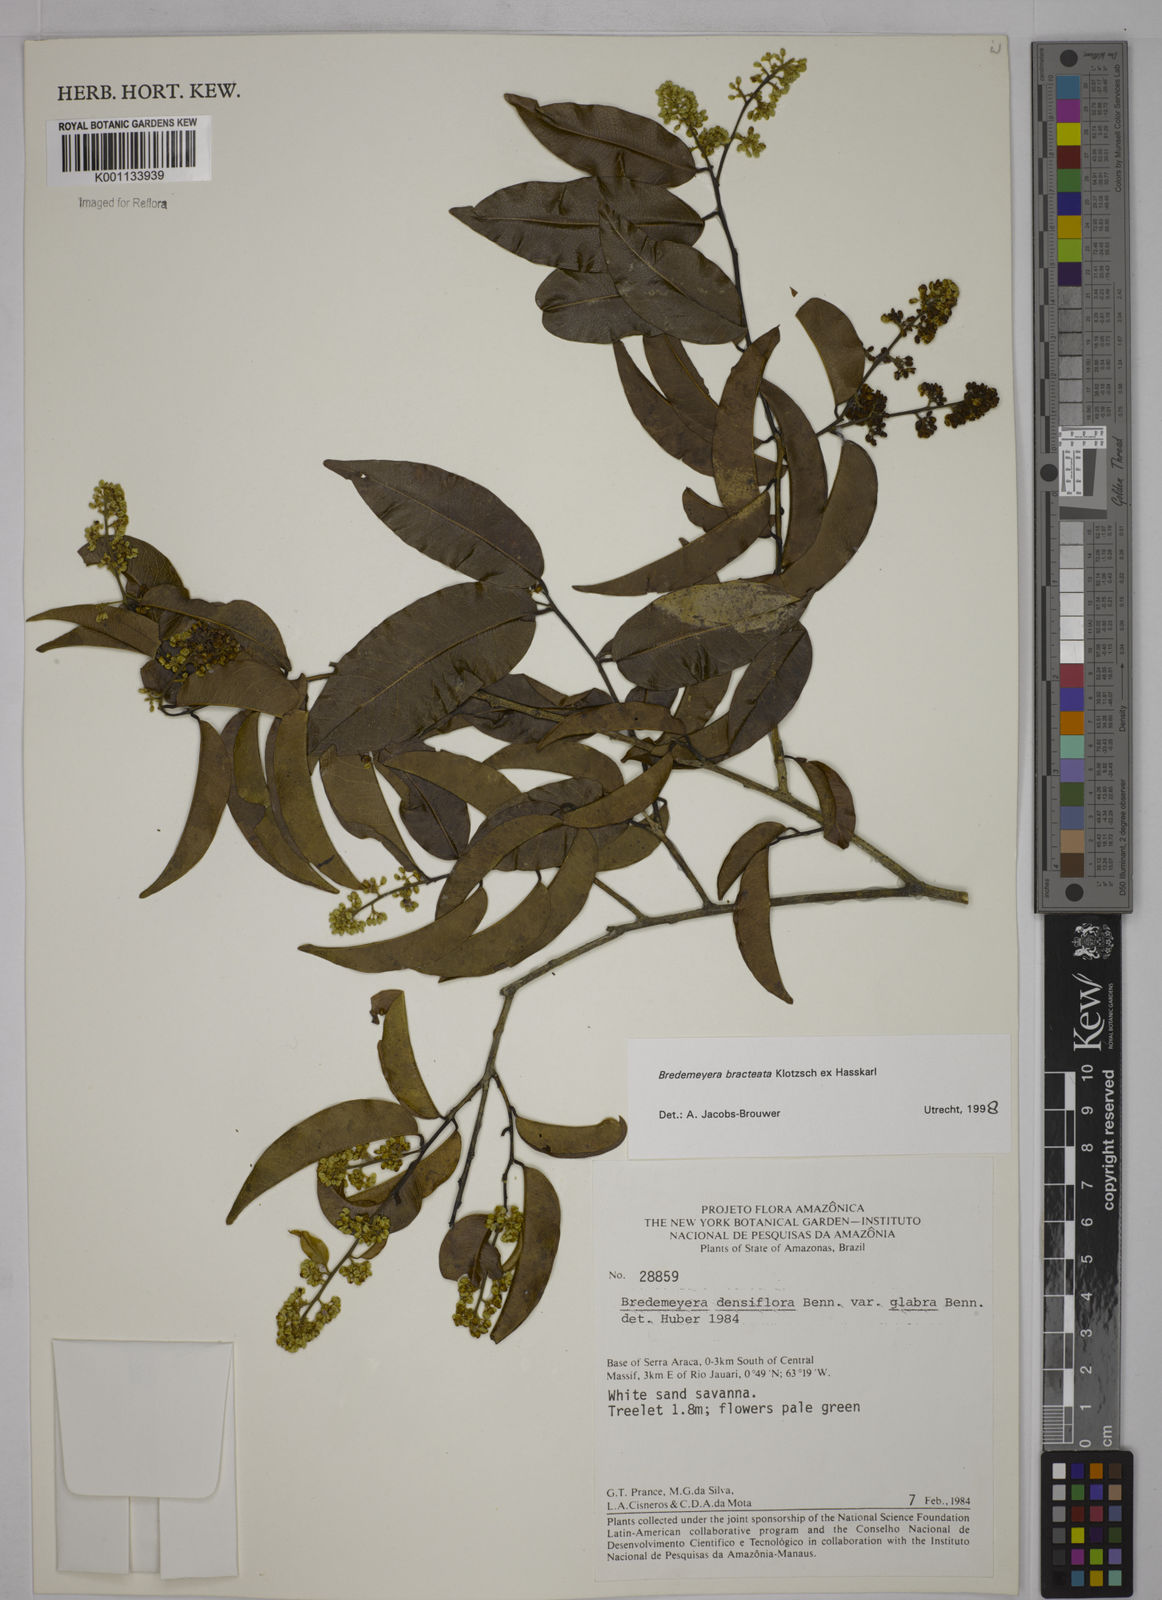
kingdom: Plantae
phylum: Tracheophyta
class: Magnoliopsida
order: Fabales
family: Polygalaceae
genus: Bredemeyera
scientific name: Bredemeyera bracteata
